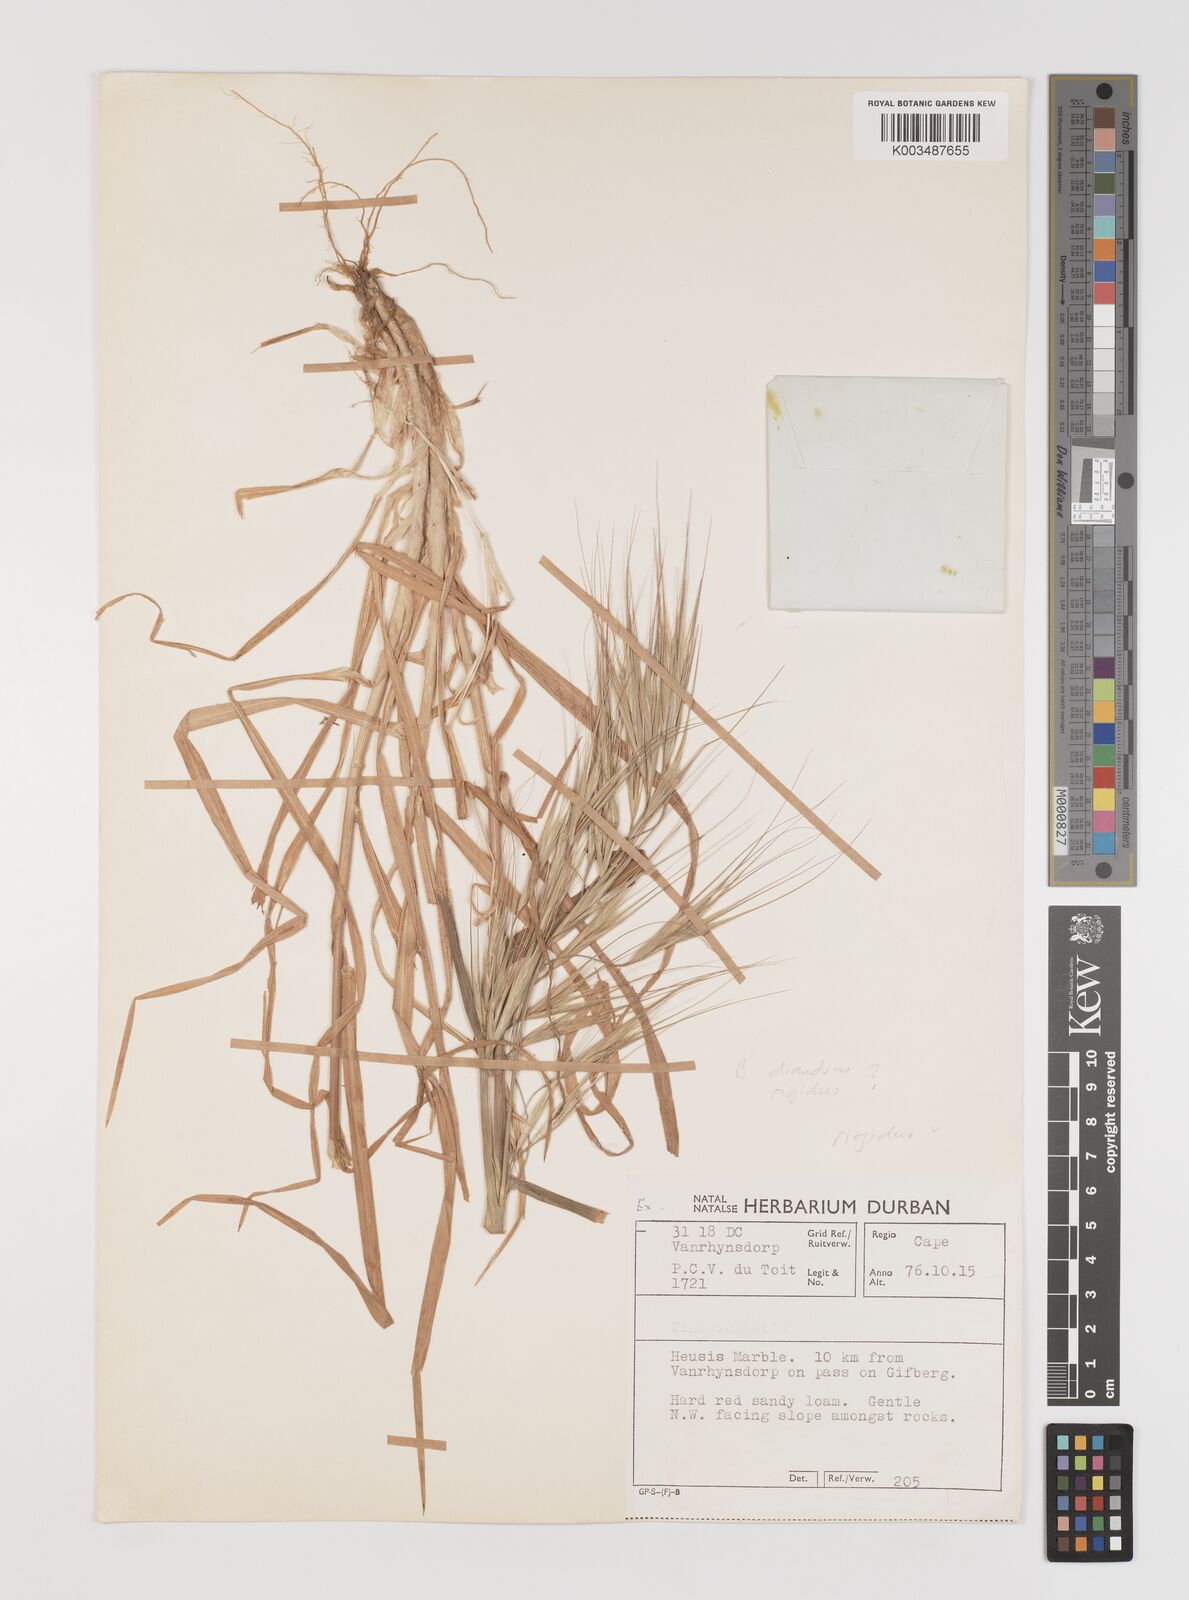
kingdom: Plantae
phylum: Tracheophyta
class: Liliopsida
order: Poales
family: Poaceae
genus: Bromus
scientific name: Bromus diandrus
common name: Ripgut brome
